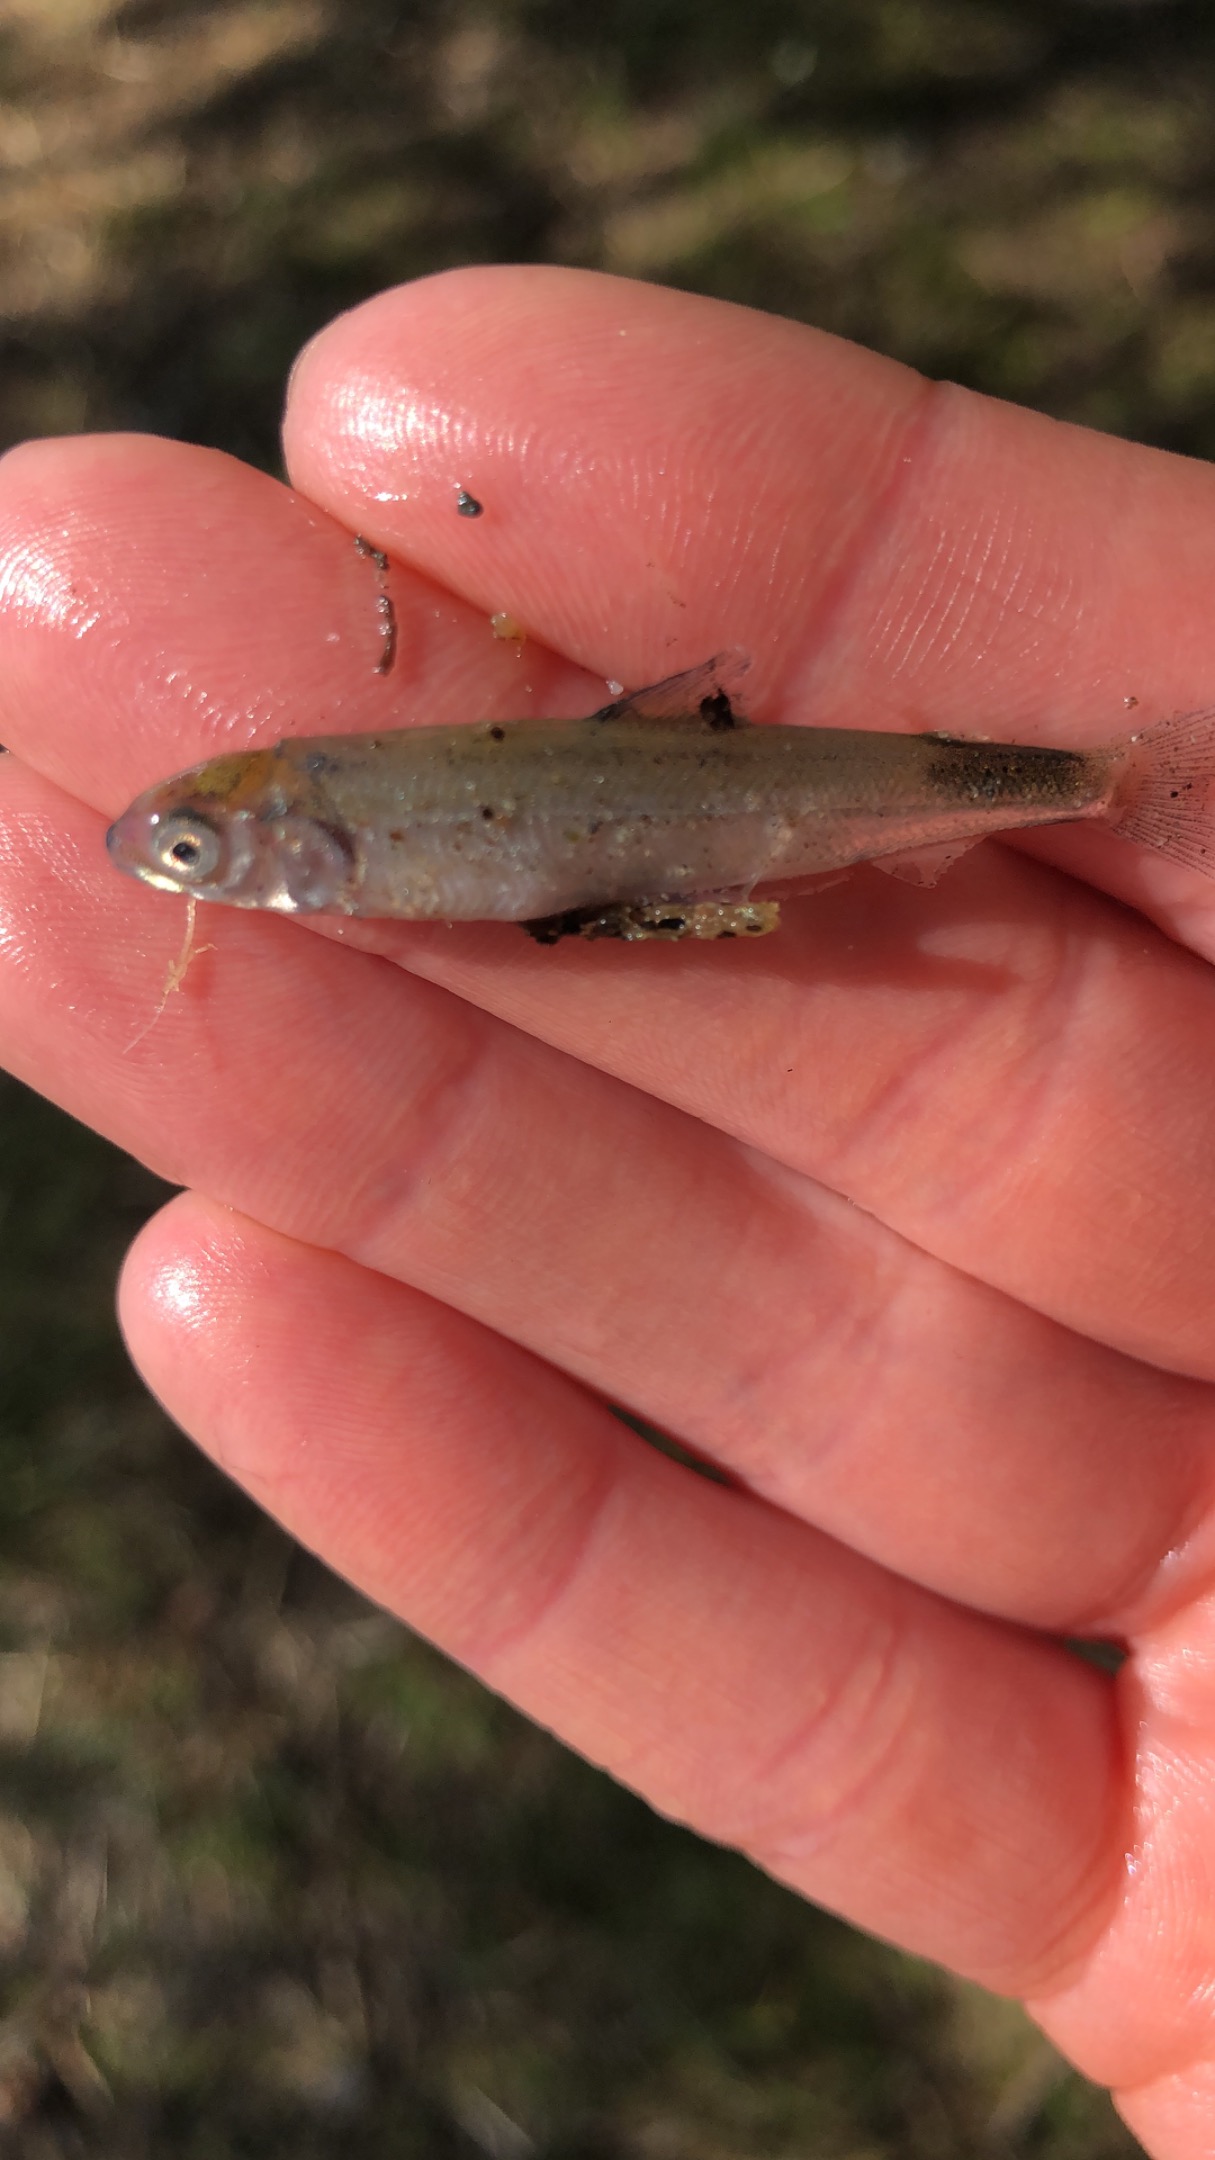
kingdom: Animalia
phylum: Chordata
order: Salmoniformes
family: Salmonidae
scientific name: Salmonidae
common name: Laksefamilien
